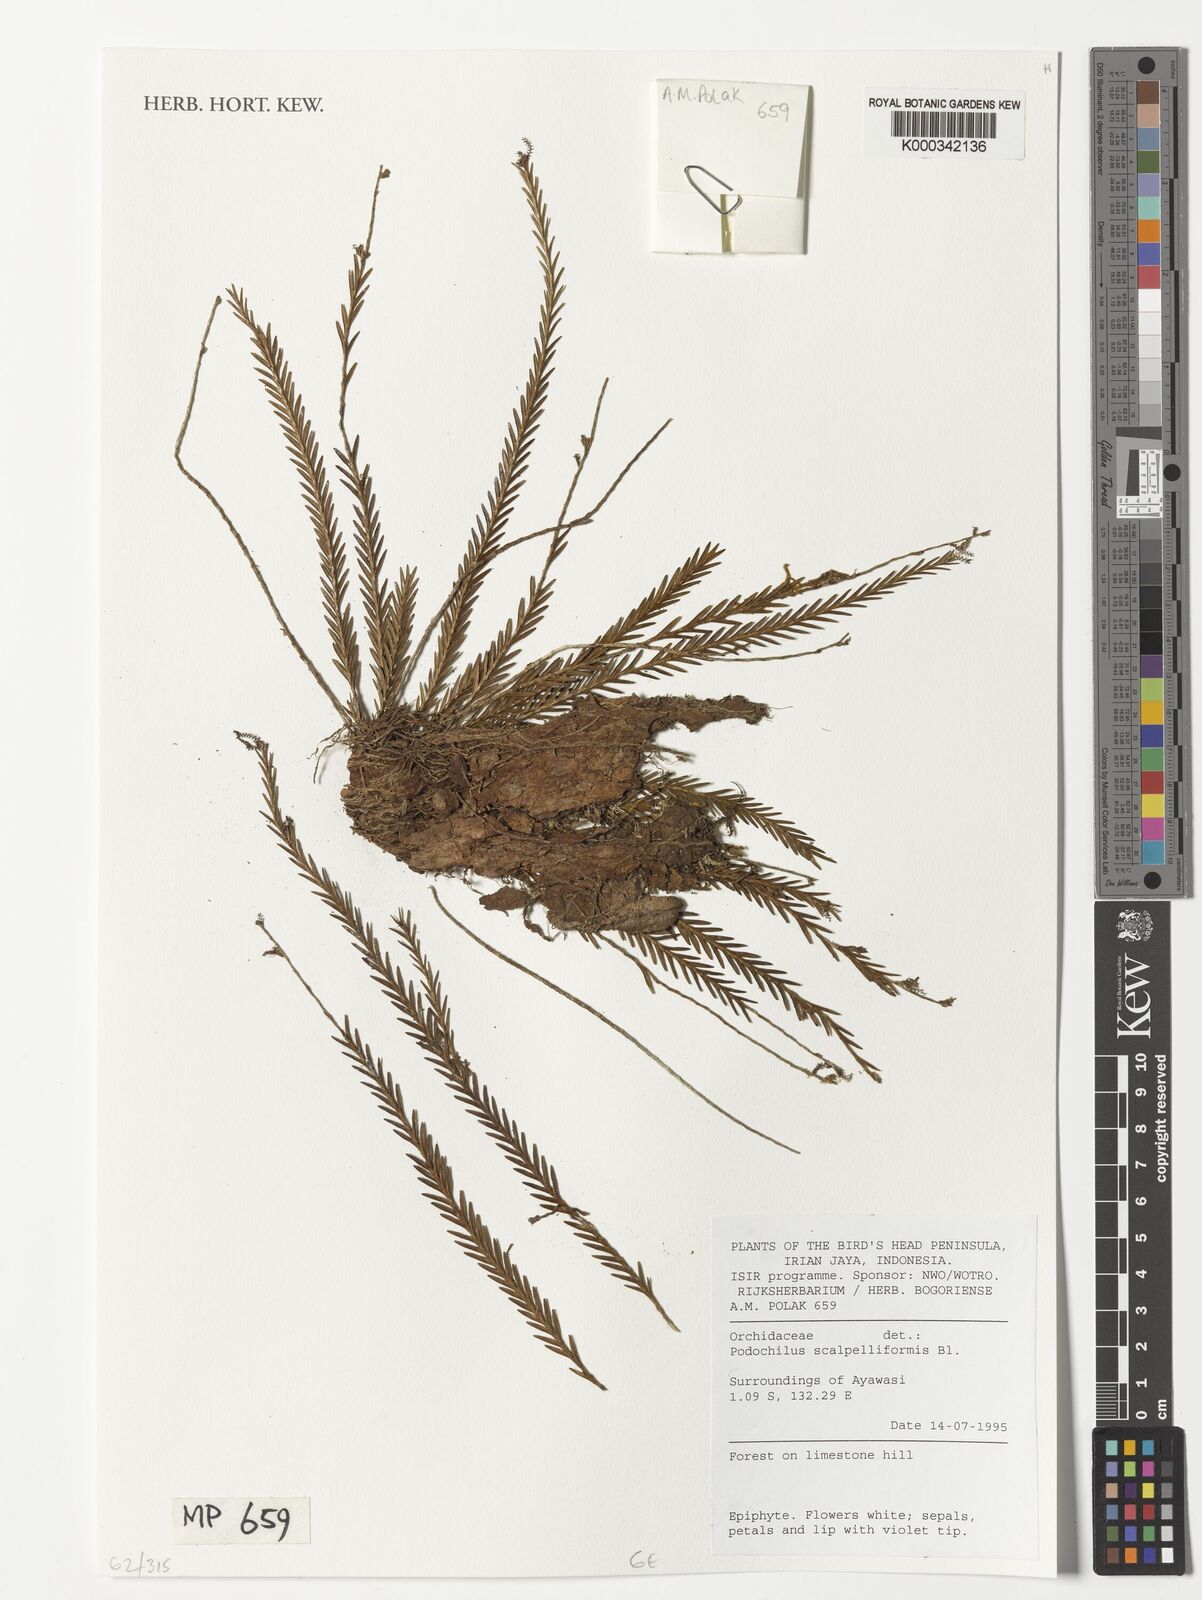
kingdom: Plantae
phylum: Tracheophyta
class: Liliopsida
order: Asparagales
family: Orchidaceae
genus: Podochilus
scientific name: Podochilus scalpelliformis
